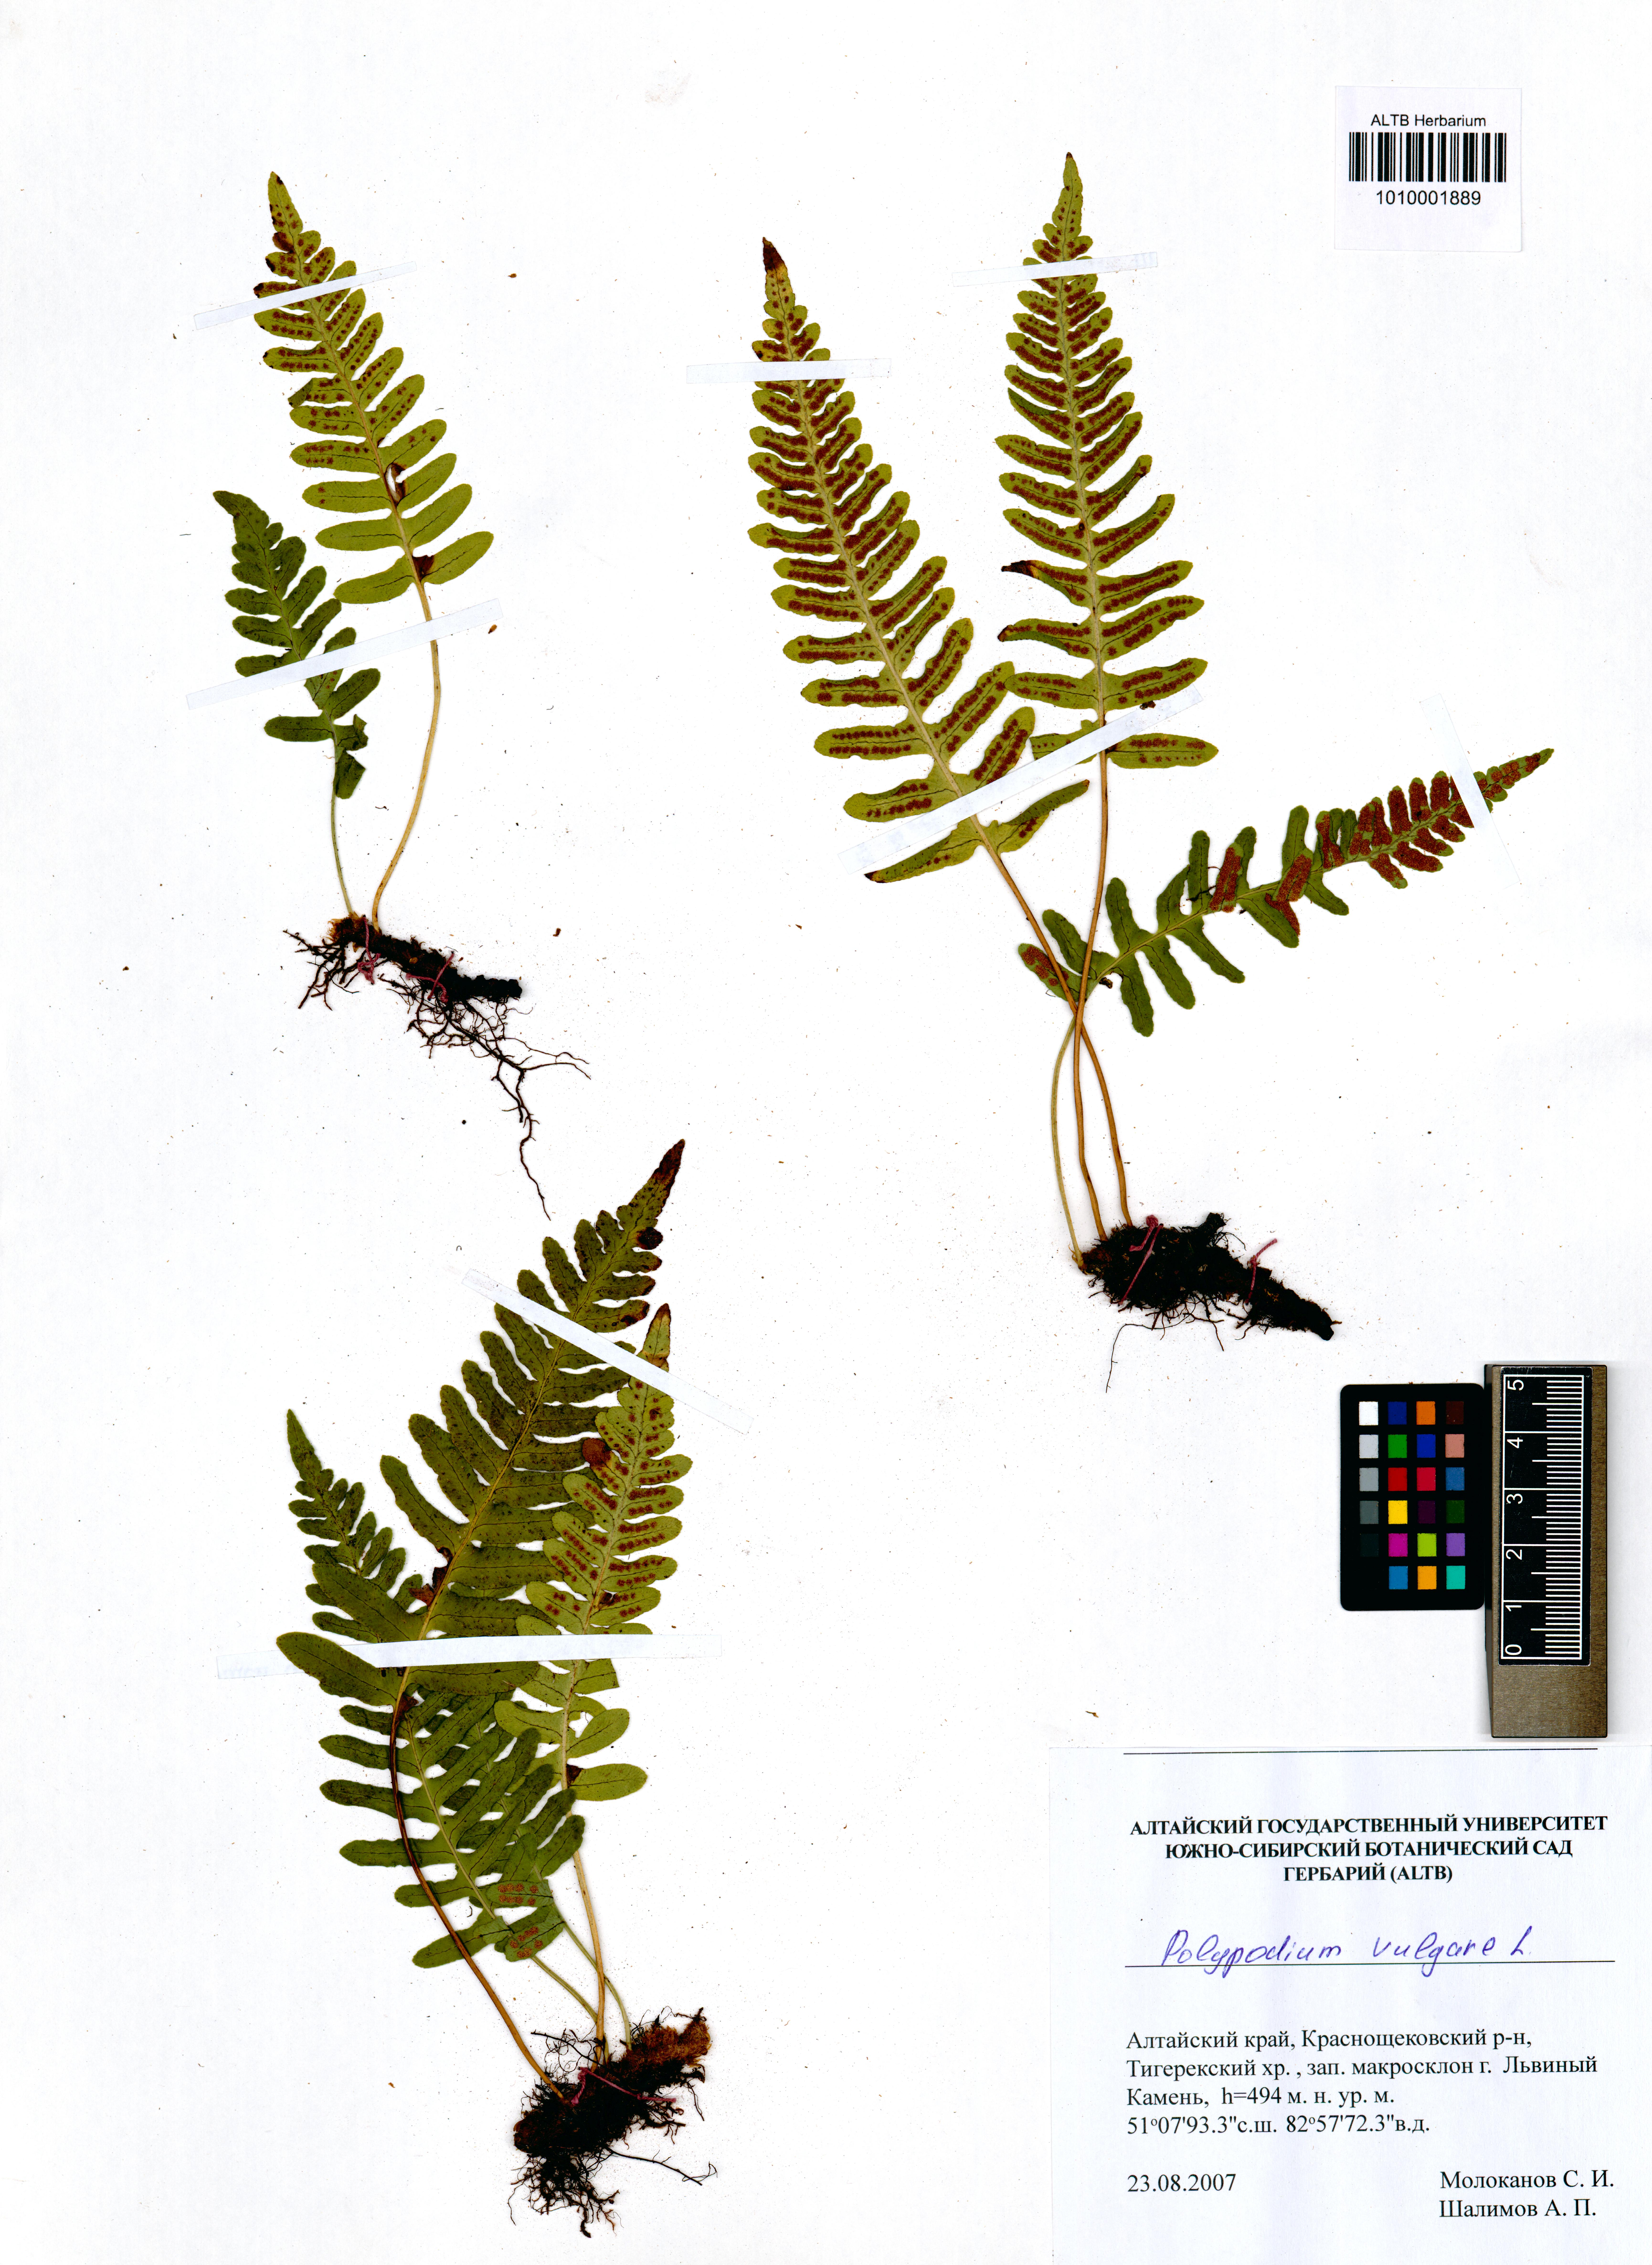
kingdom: Plantae
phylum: Tracheophyta
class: Polypodiopsida
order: Polypodiales
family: Polypodiaceae
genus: Polypodium
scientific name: Polypodium vulgare
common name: Common polypody
